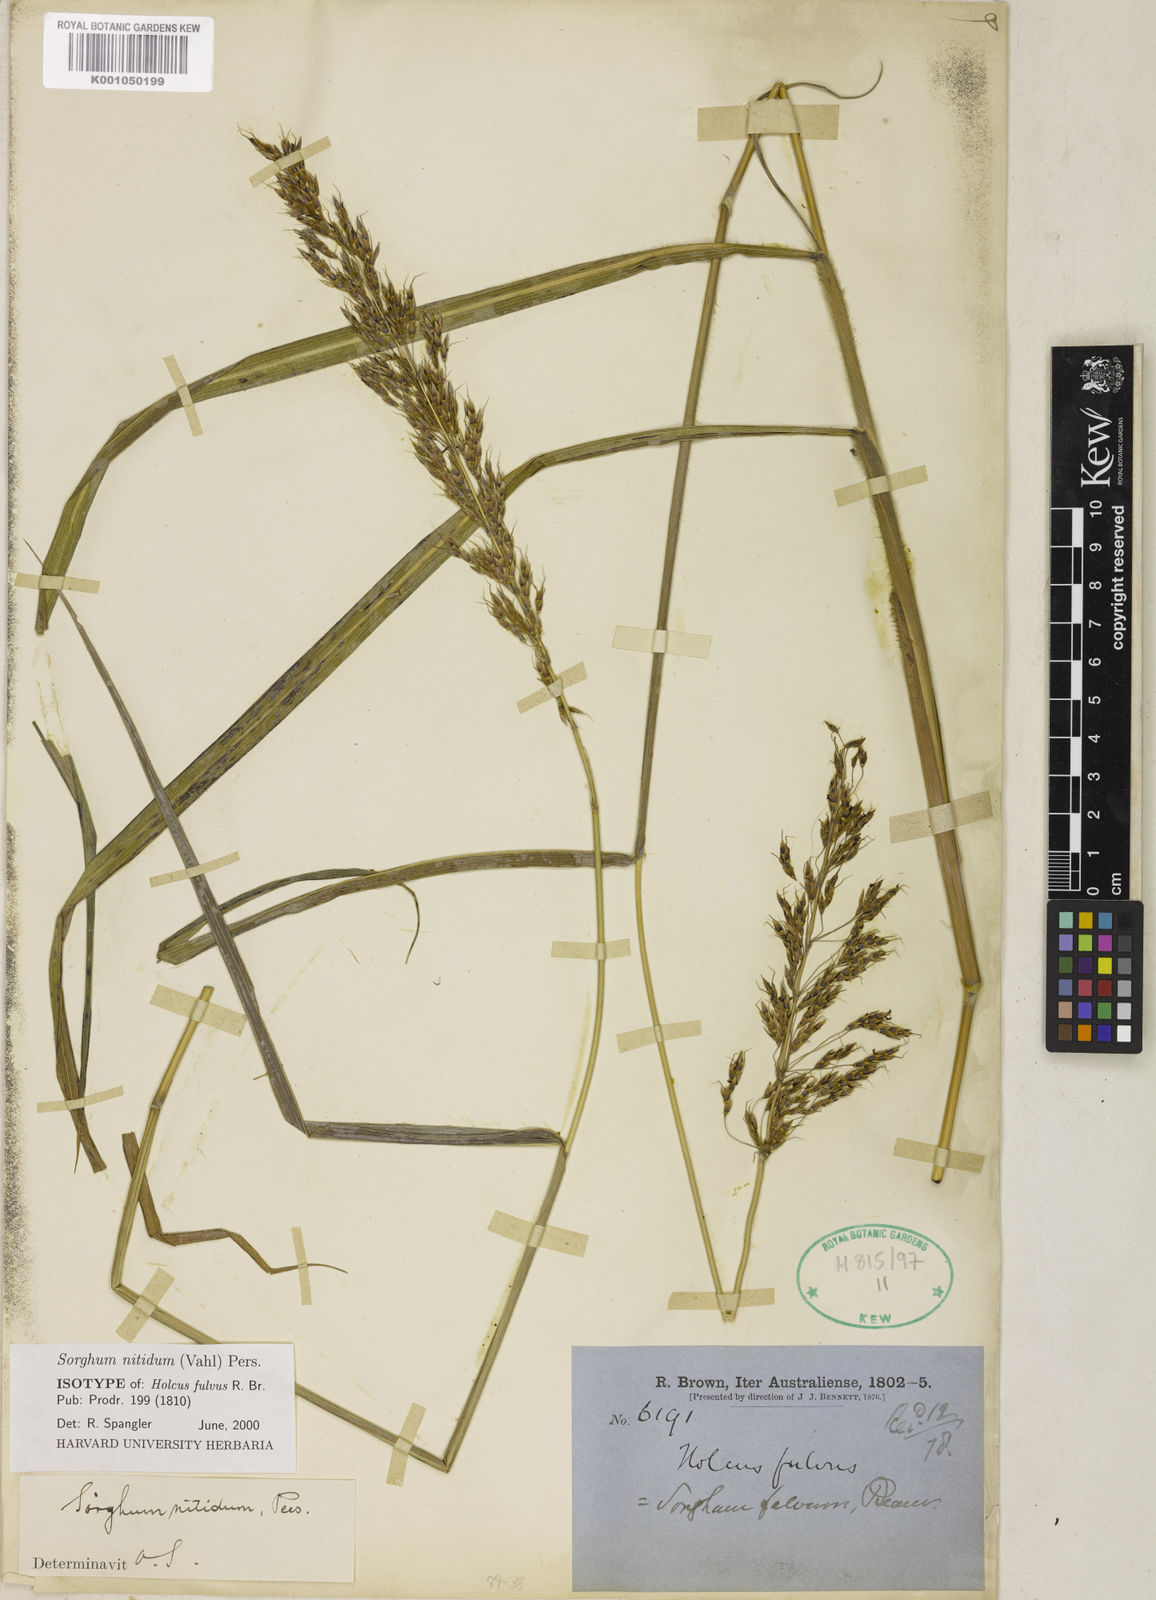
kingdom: Plantae
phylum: Tracheophyta
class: Liliopsida
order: Poales
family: Poaceae
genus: Sorghum
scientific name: Sorghum nitidum
